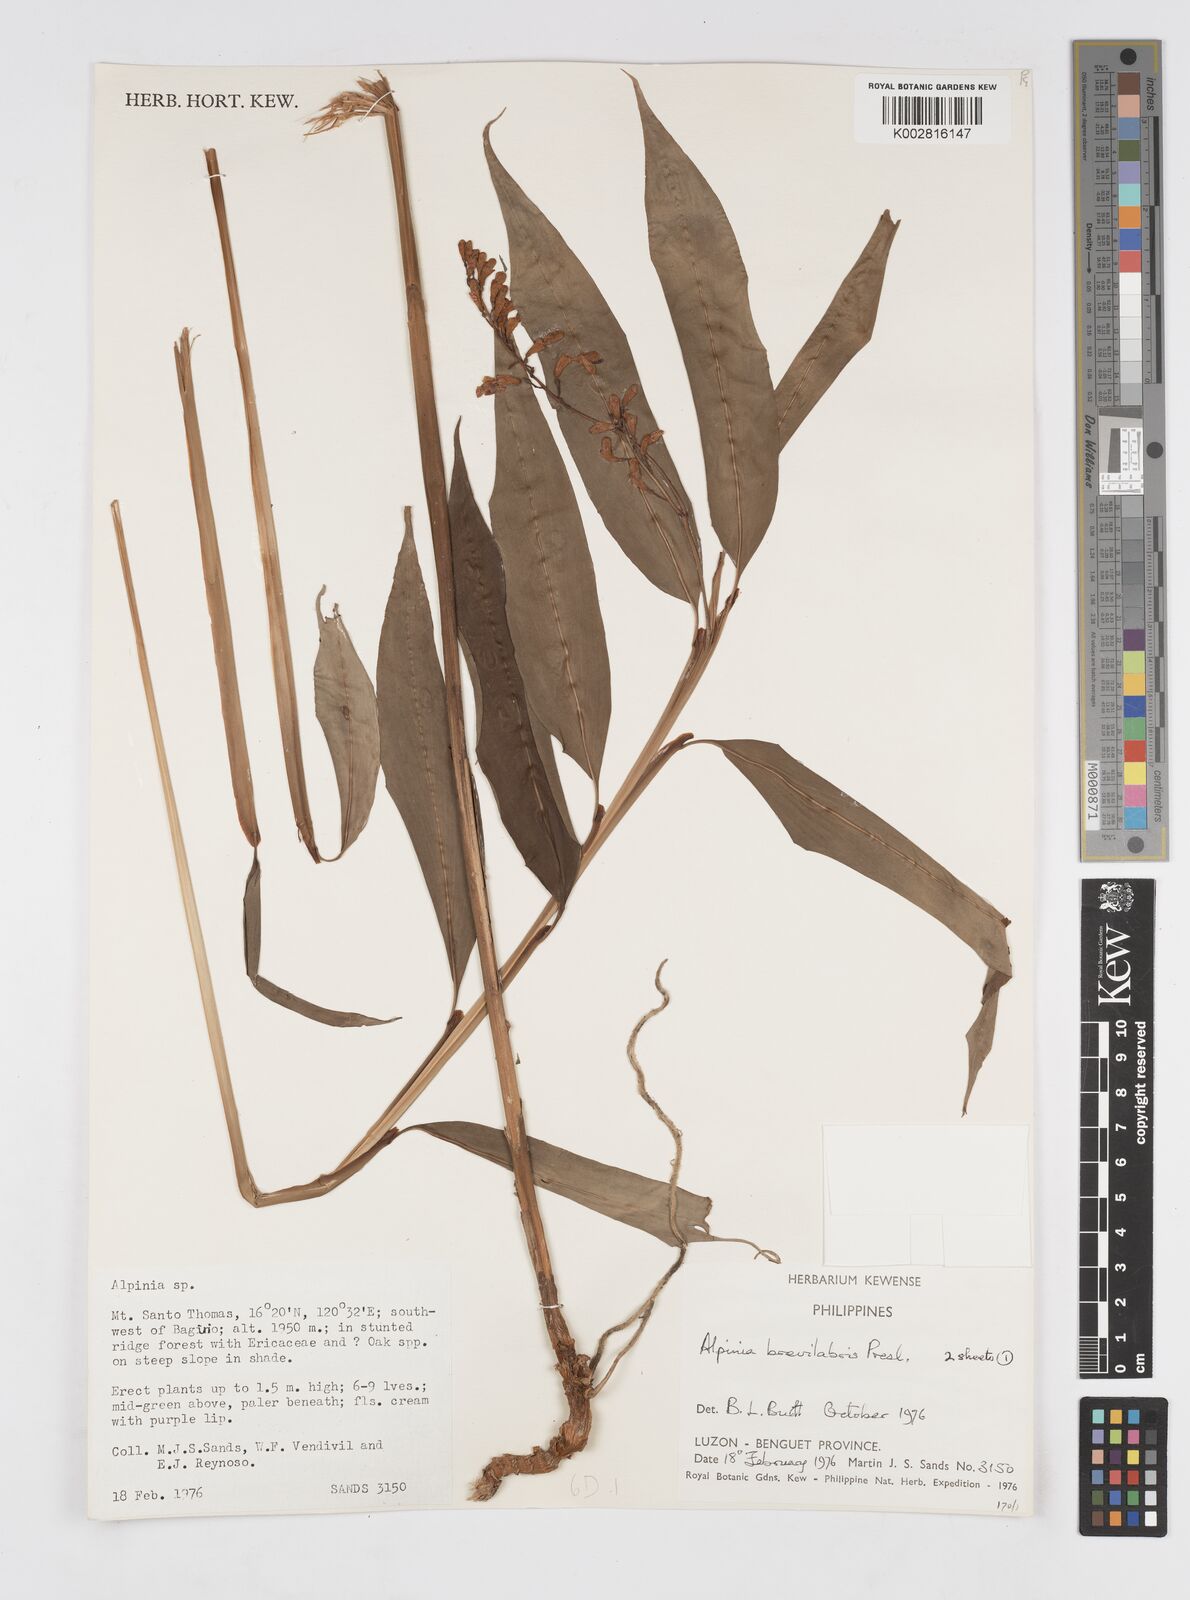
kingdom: Plantae
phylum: Tracheophyta
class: Liliopsida
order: Zingiberales
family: Zingiberaceae
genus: Alpinia
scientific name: Alpinia brevilabris
